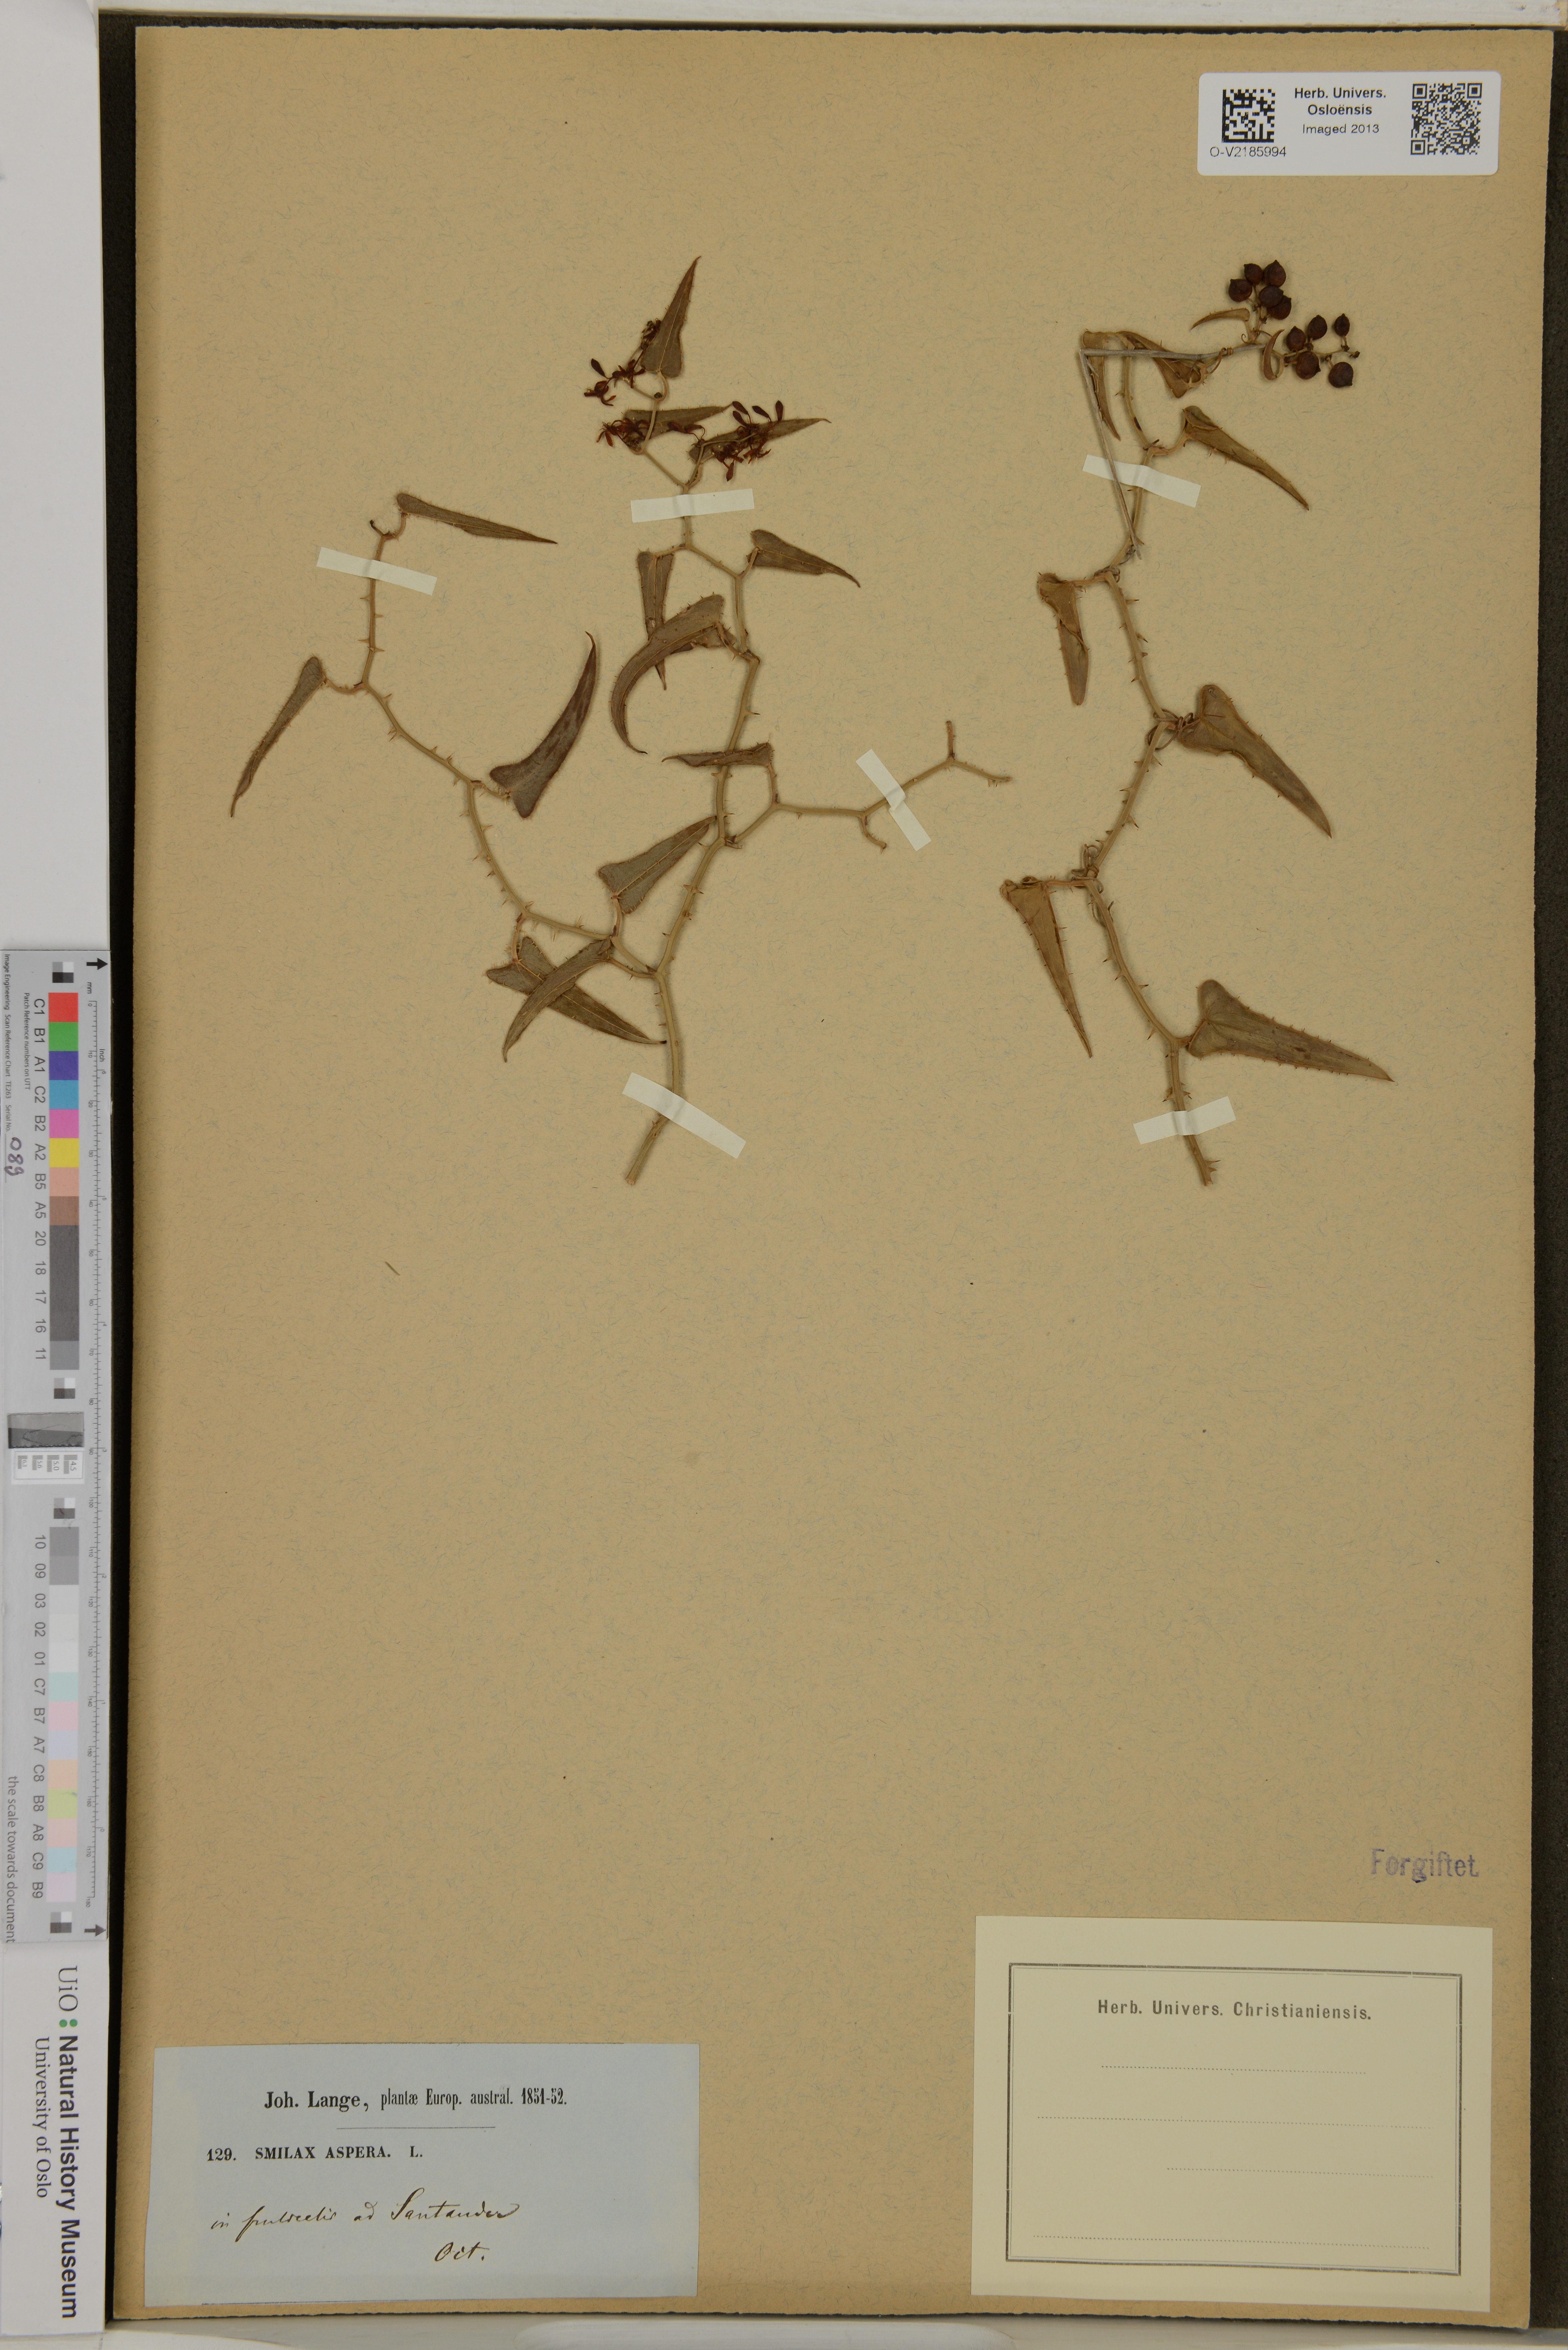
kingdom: Plantae
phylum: Tracheophyta
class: Liliopsida
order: Liliales
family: Smilacaceae
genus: Smilax
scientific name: Smilax aspera
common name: Common smilax
